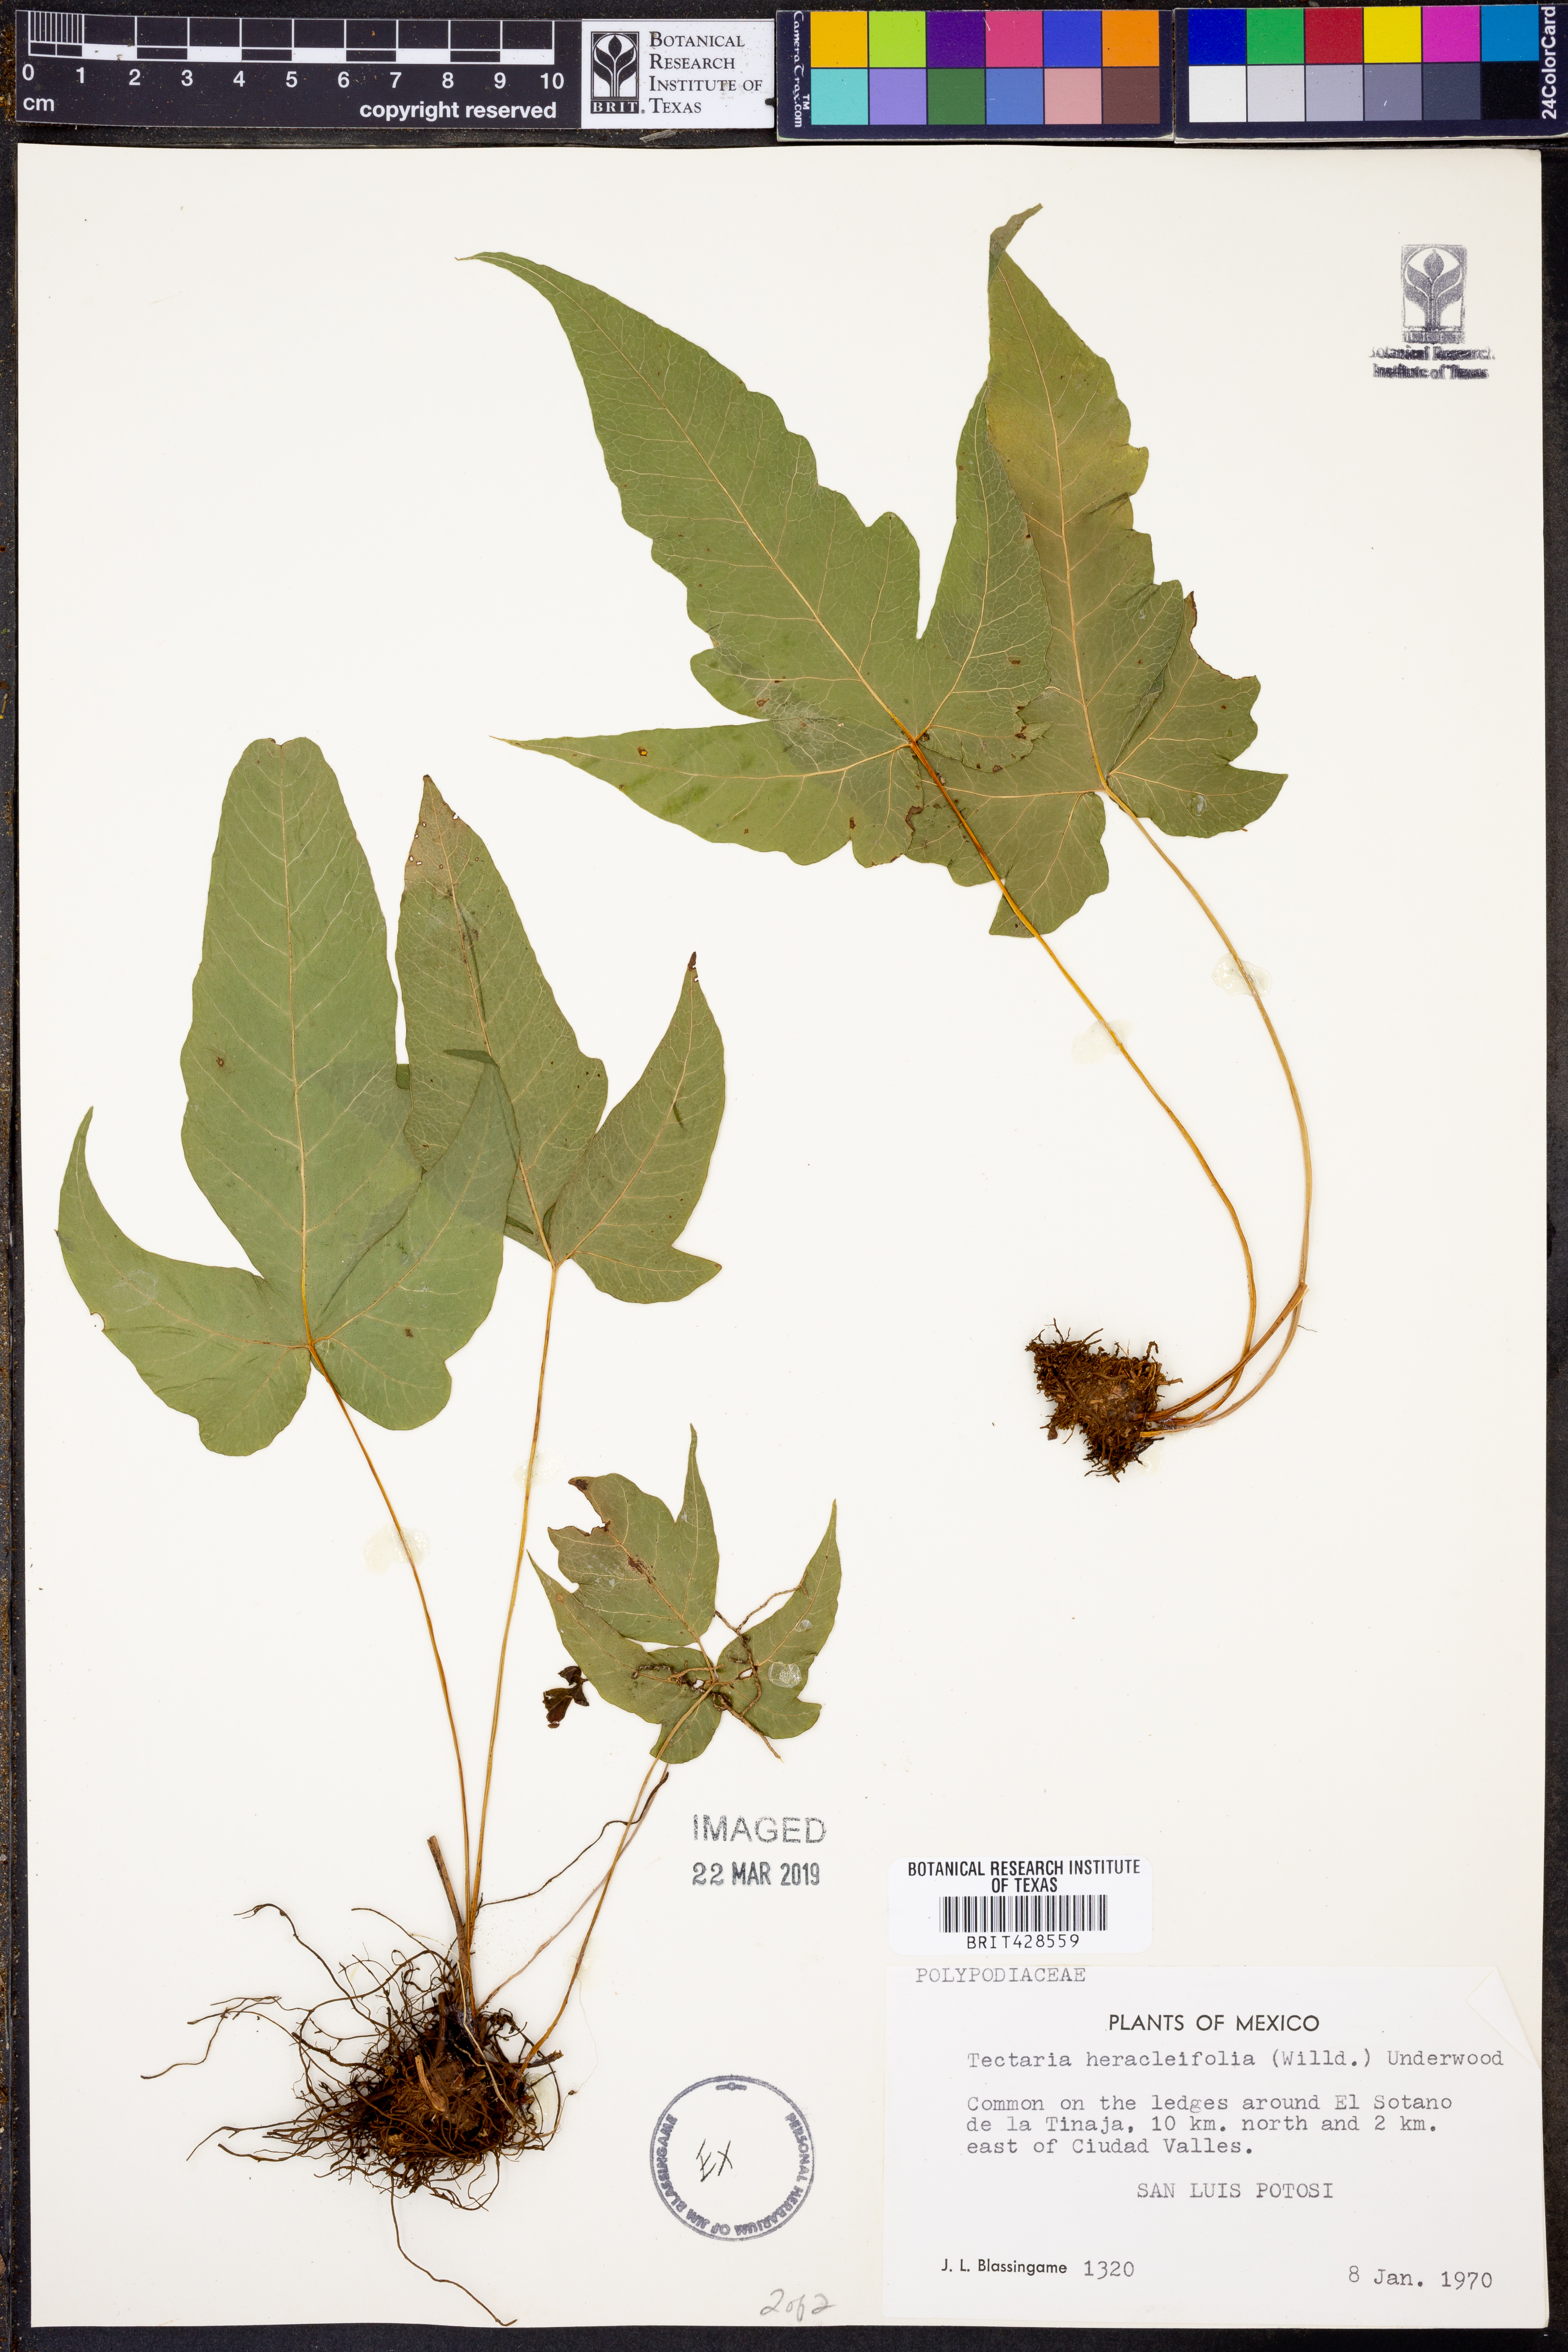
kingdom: Plantae
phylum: Tracheophyta
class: Polypodiopsida
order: Polypodiales
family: Tectariaceae
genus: Tectaria
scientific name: Tectaria heracleifolia
